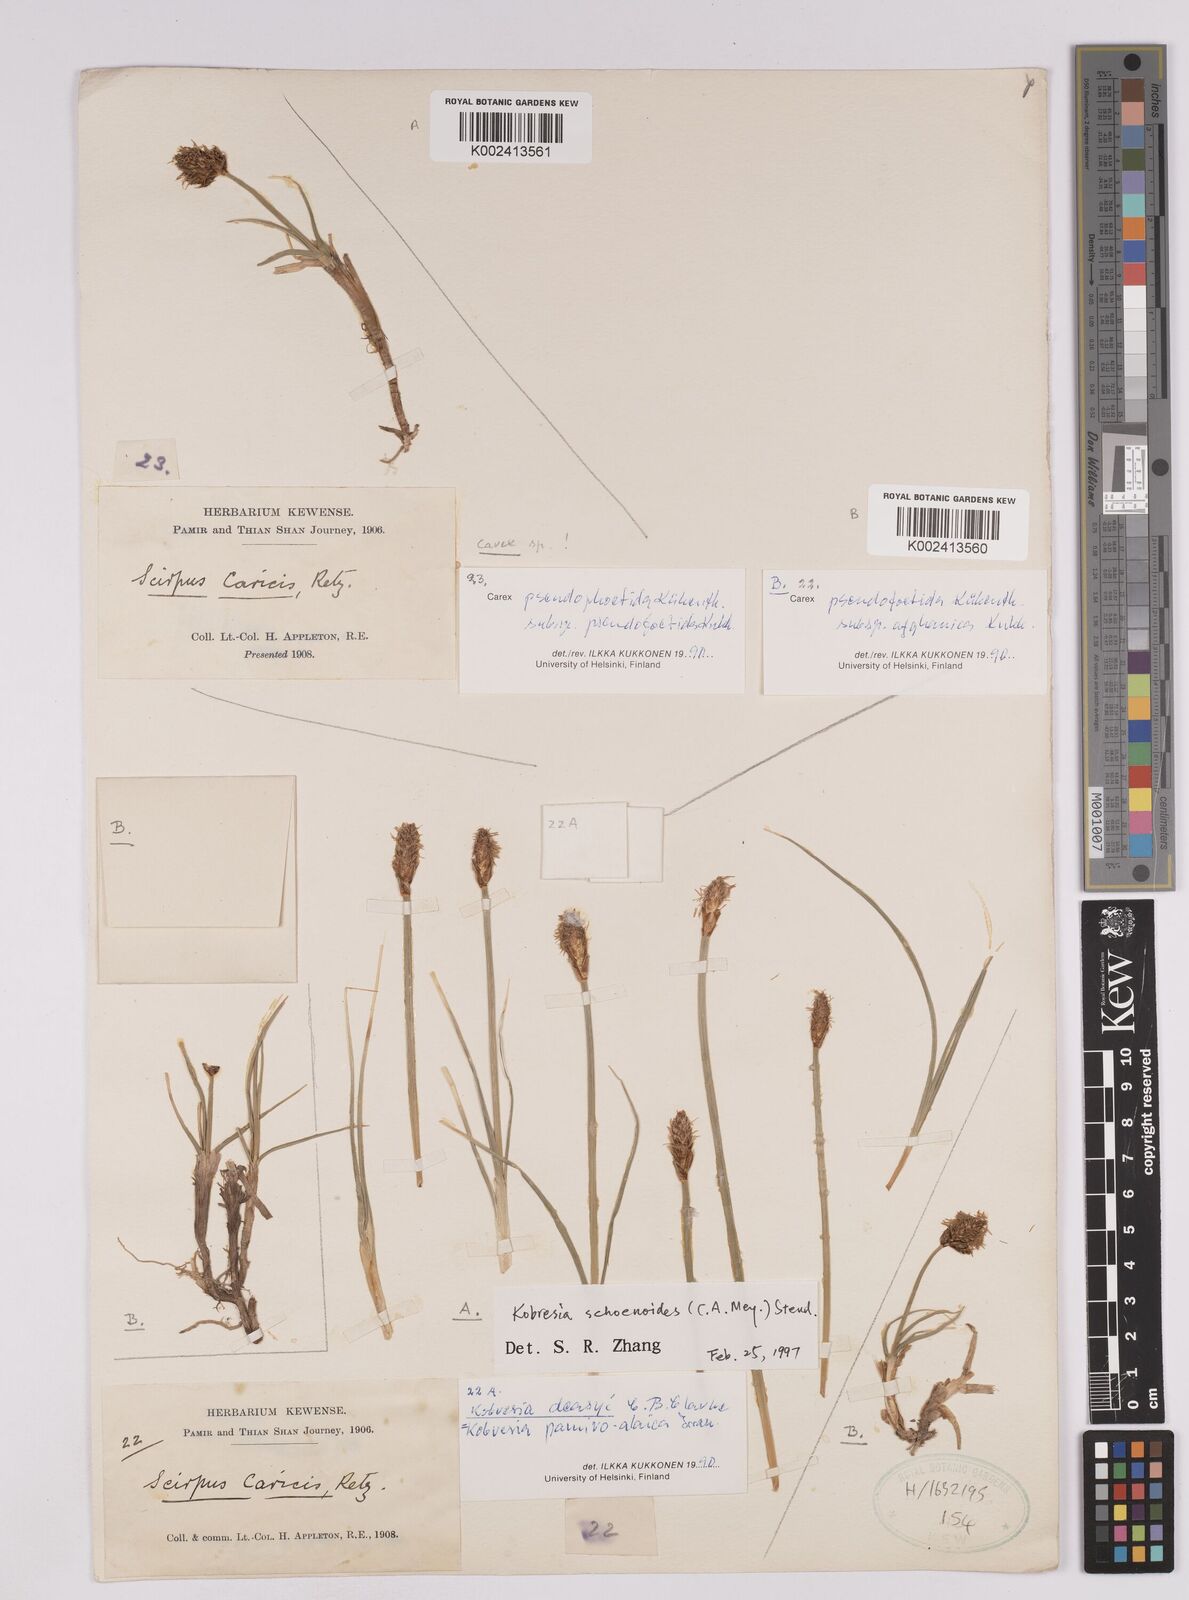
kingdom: Plantae
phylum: Tracheophyta
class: Liliopsida
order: Poales
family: Cyperaceae
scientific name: Cyperaceae
